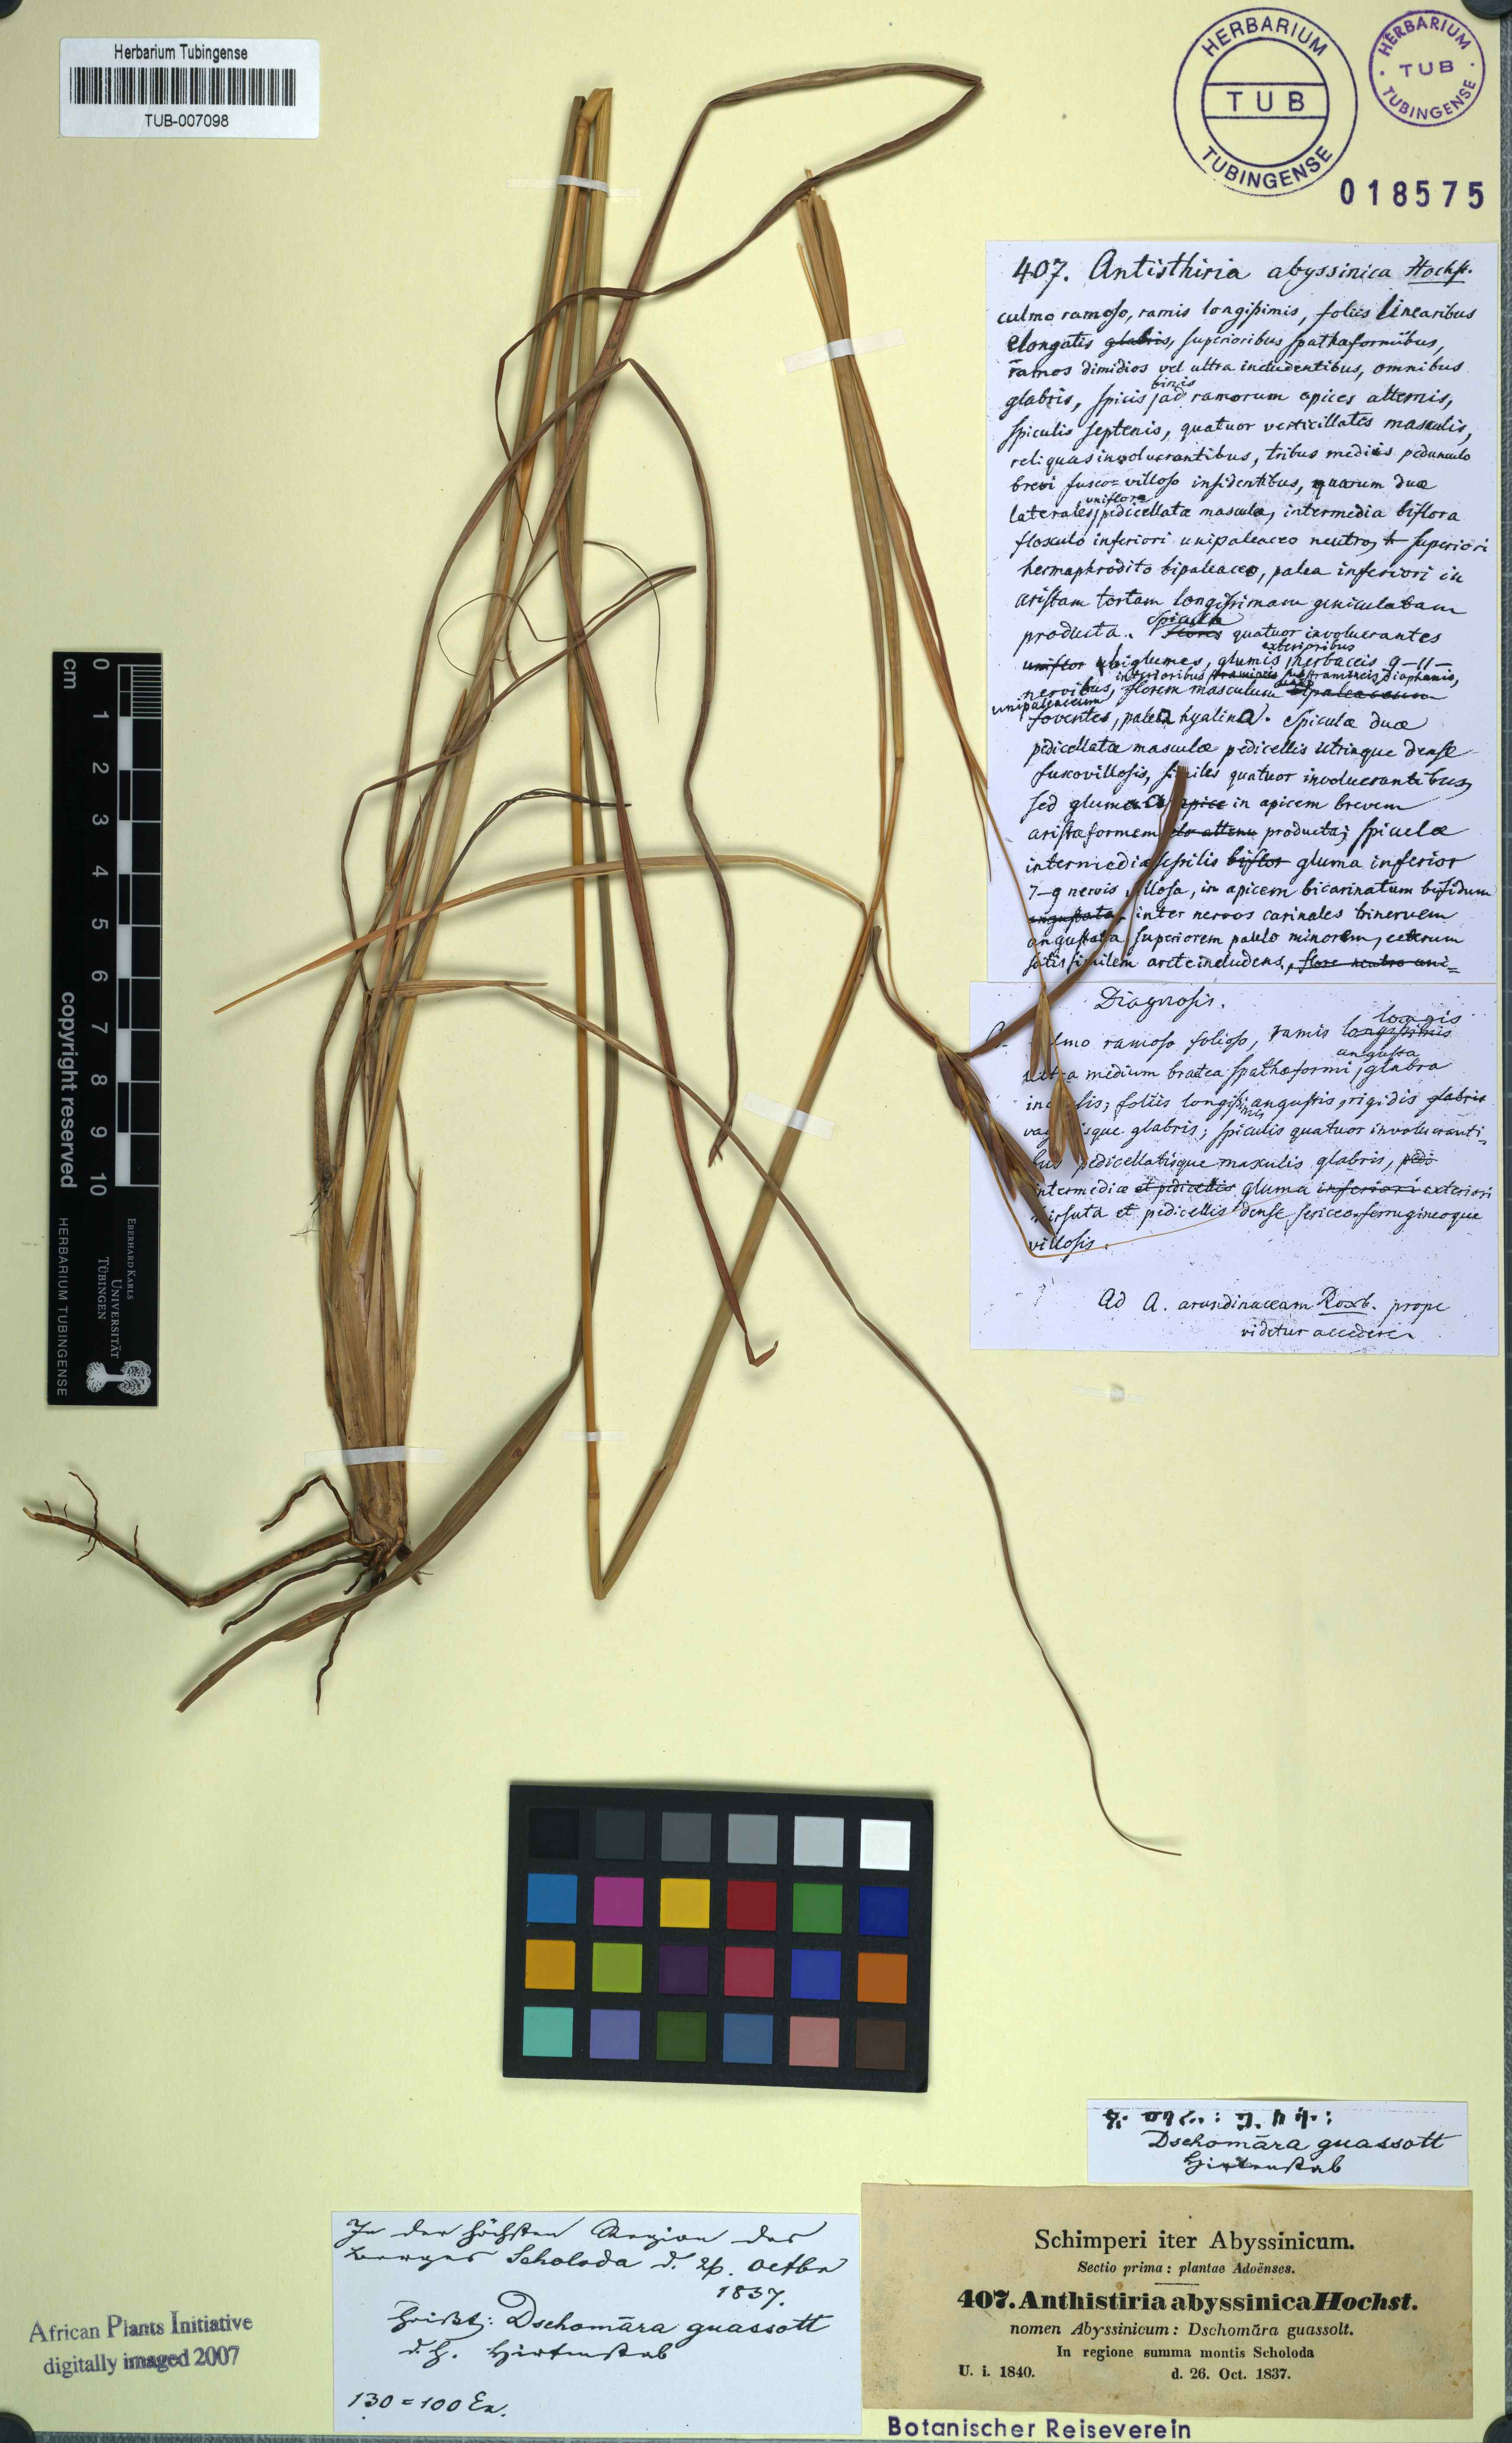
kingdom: Plantae
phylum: Tracheophyta
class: Liliopsida
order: Poales
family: Poaceae
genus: Exotheca
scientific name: Exotheca abyssinica
